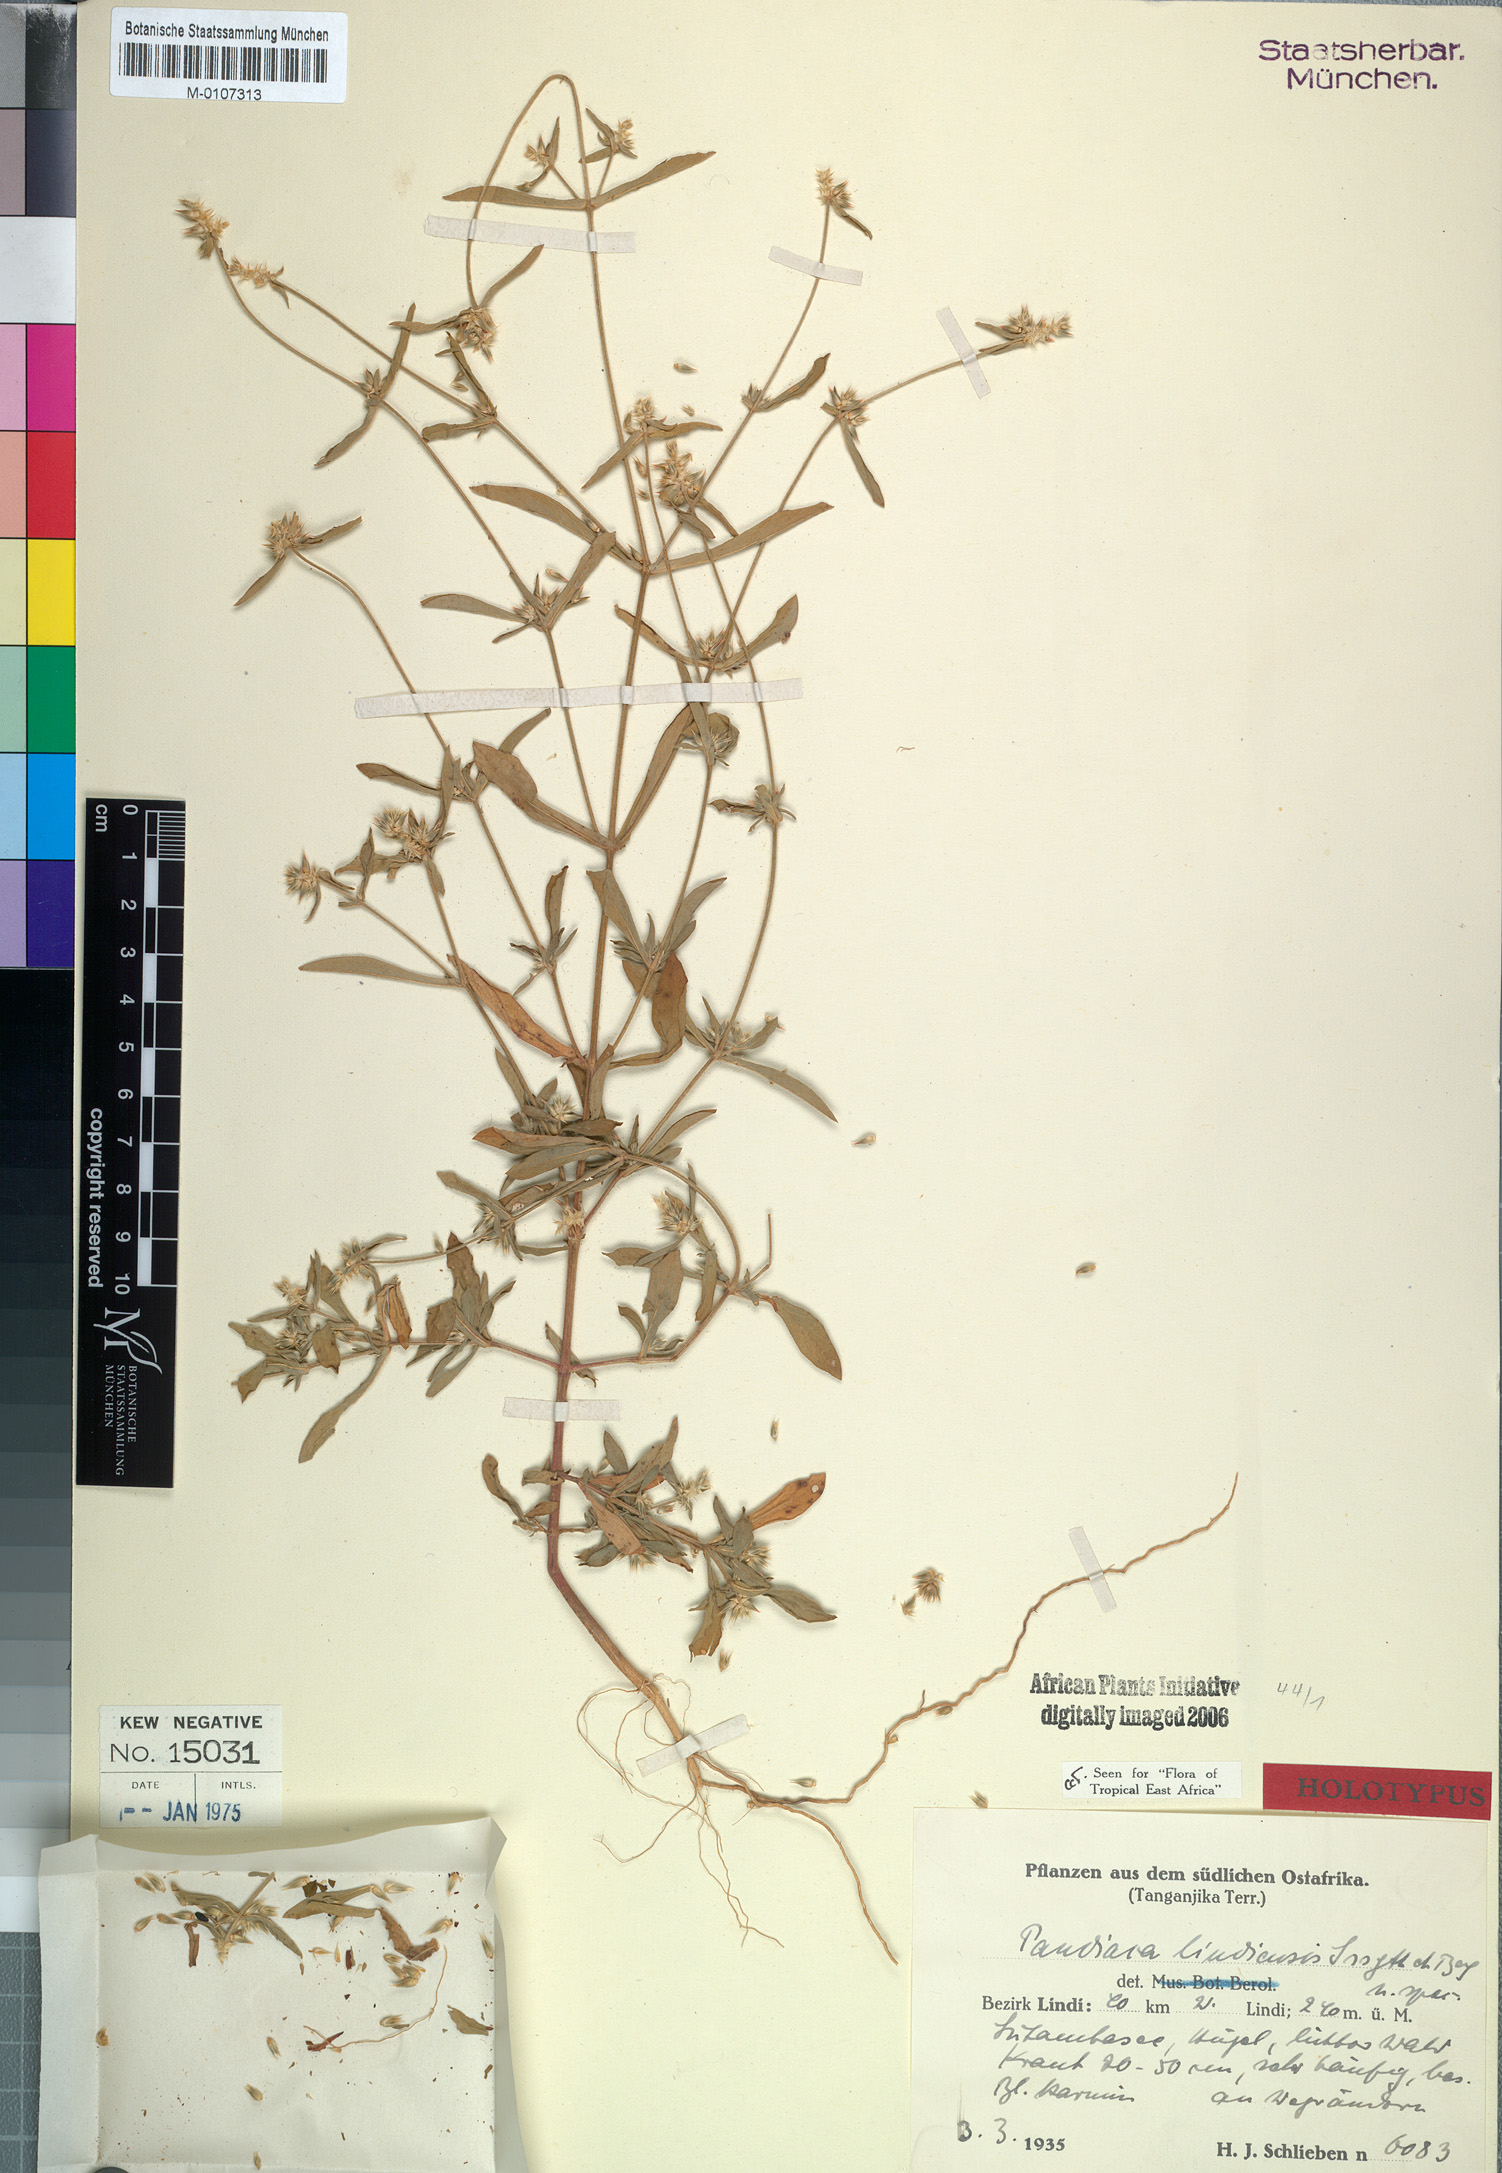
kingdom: Plantae
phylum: Tracheophyta
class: Magnoliopsida
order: Caryophyllales
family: Amaranthaceae
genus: Pandiaka
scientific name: Pandiaka rubrolutea
